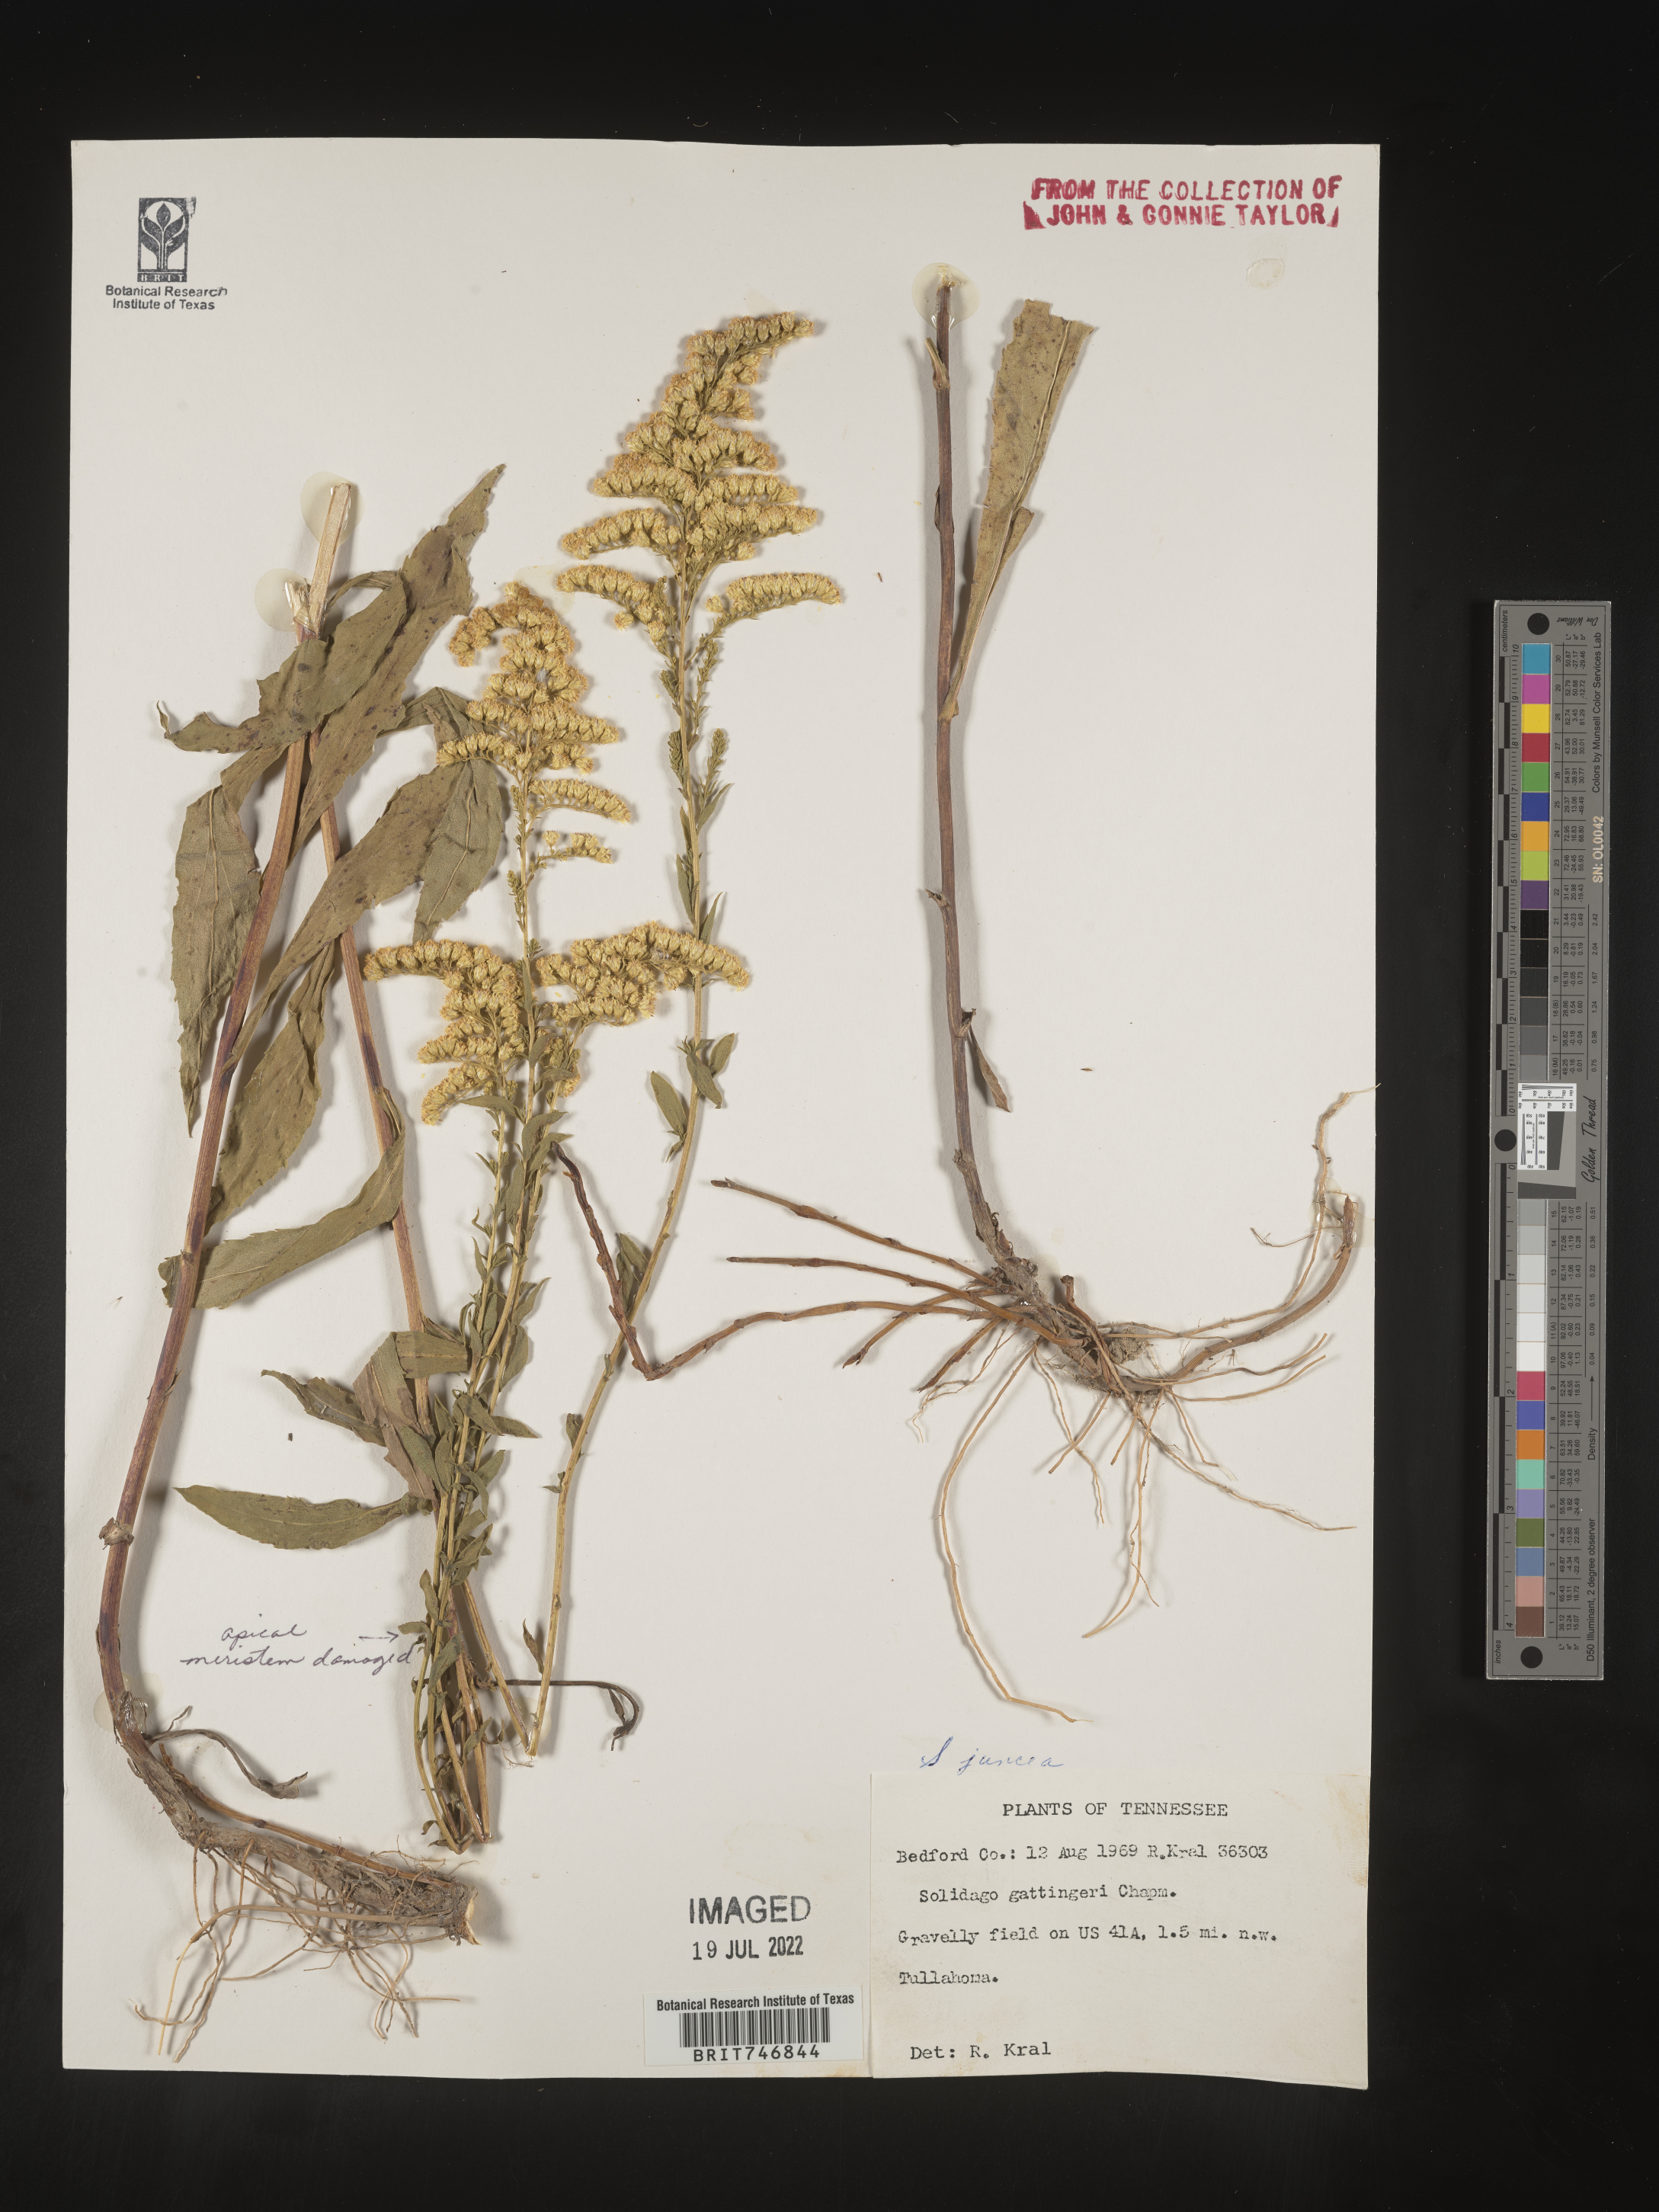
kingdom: Plantae
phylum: Tracheophyta
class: Magnoliopsida
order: Asterales
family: Asteraceae
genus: Solidago
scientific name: Solidago juncea
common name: Early goldenrod
